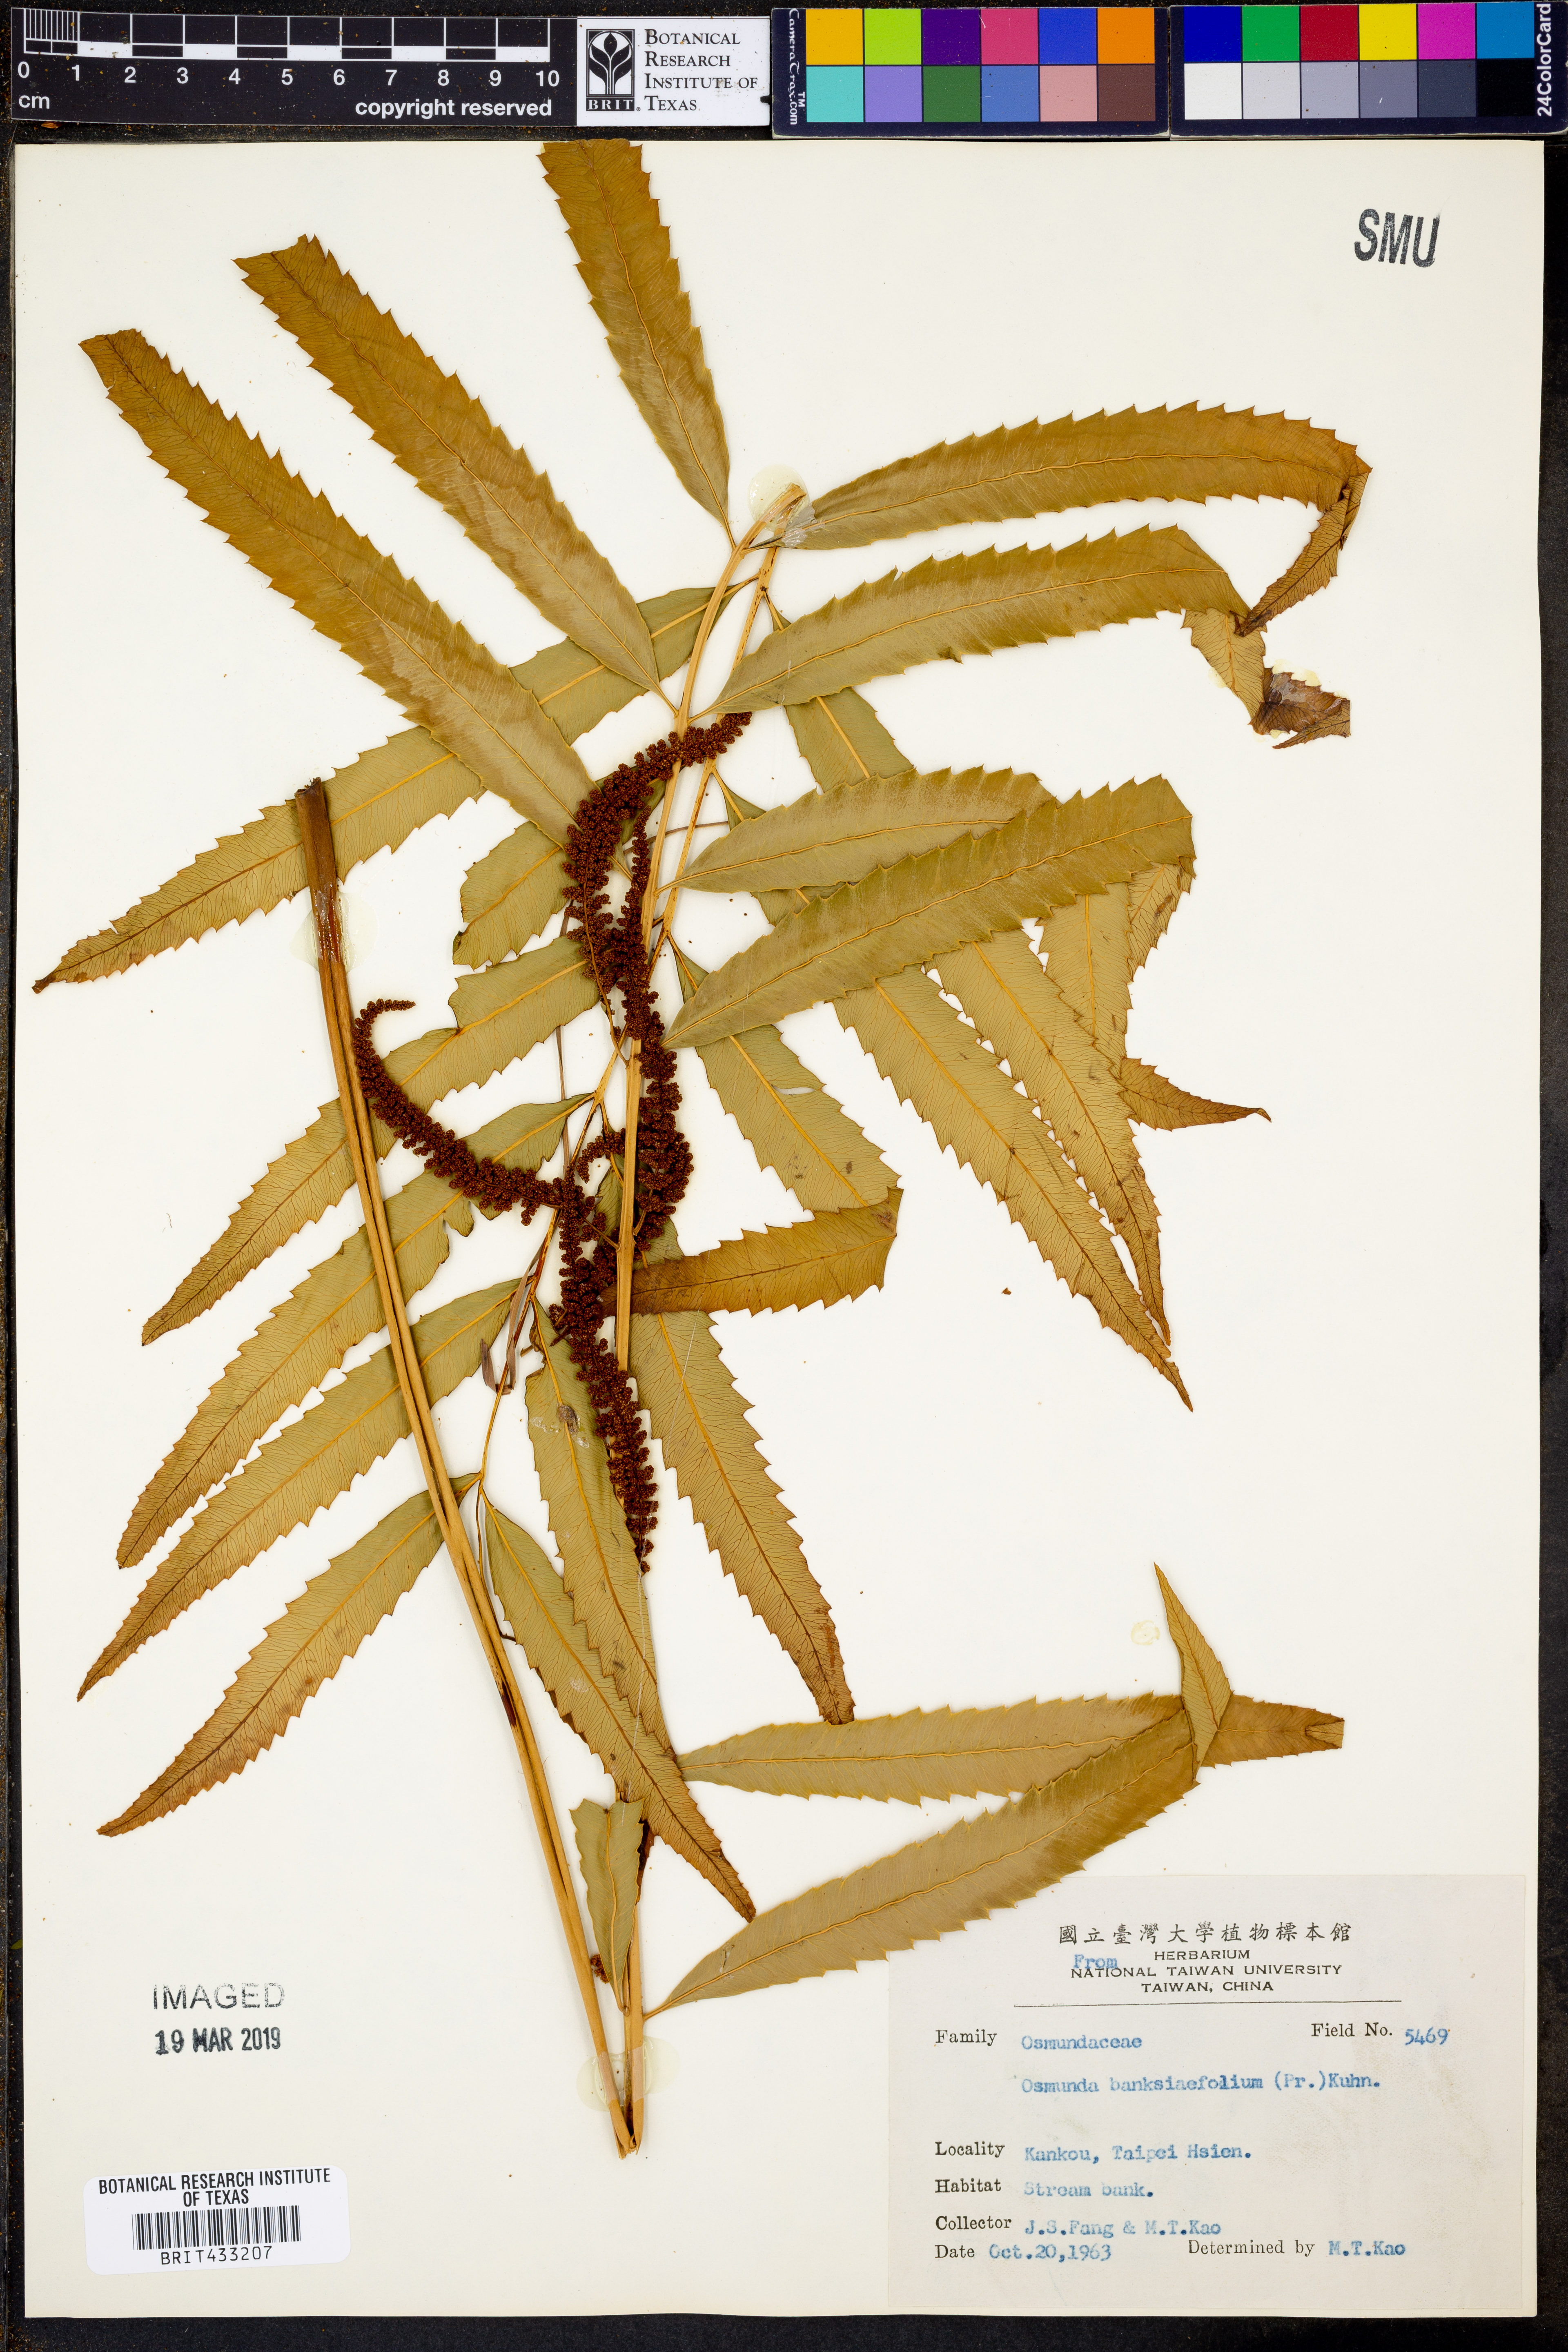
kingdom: Plantae
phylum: Tracheophyta
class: Polypodiopsida
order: Osmundales
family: Osmundaceae
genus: Plenasium
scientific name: Plenasium banksiifolium
